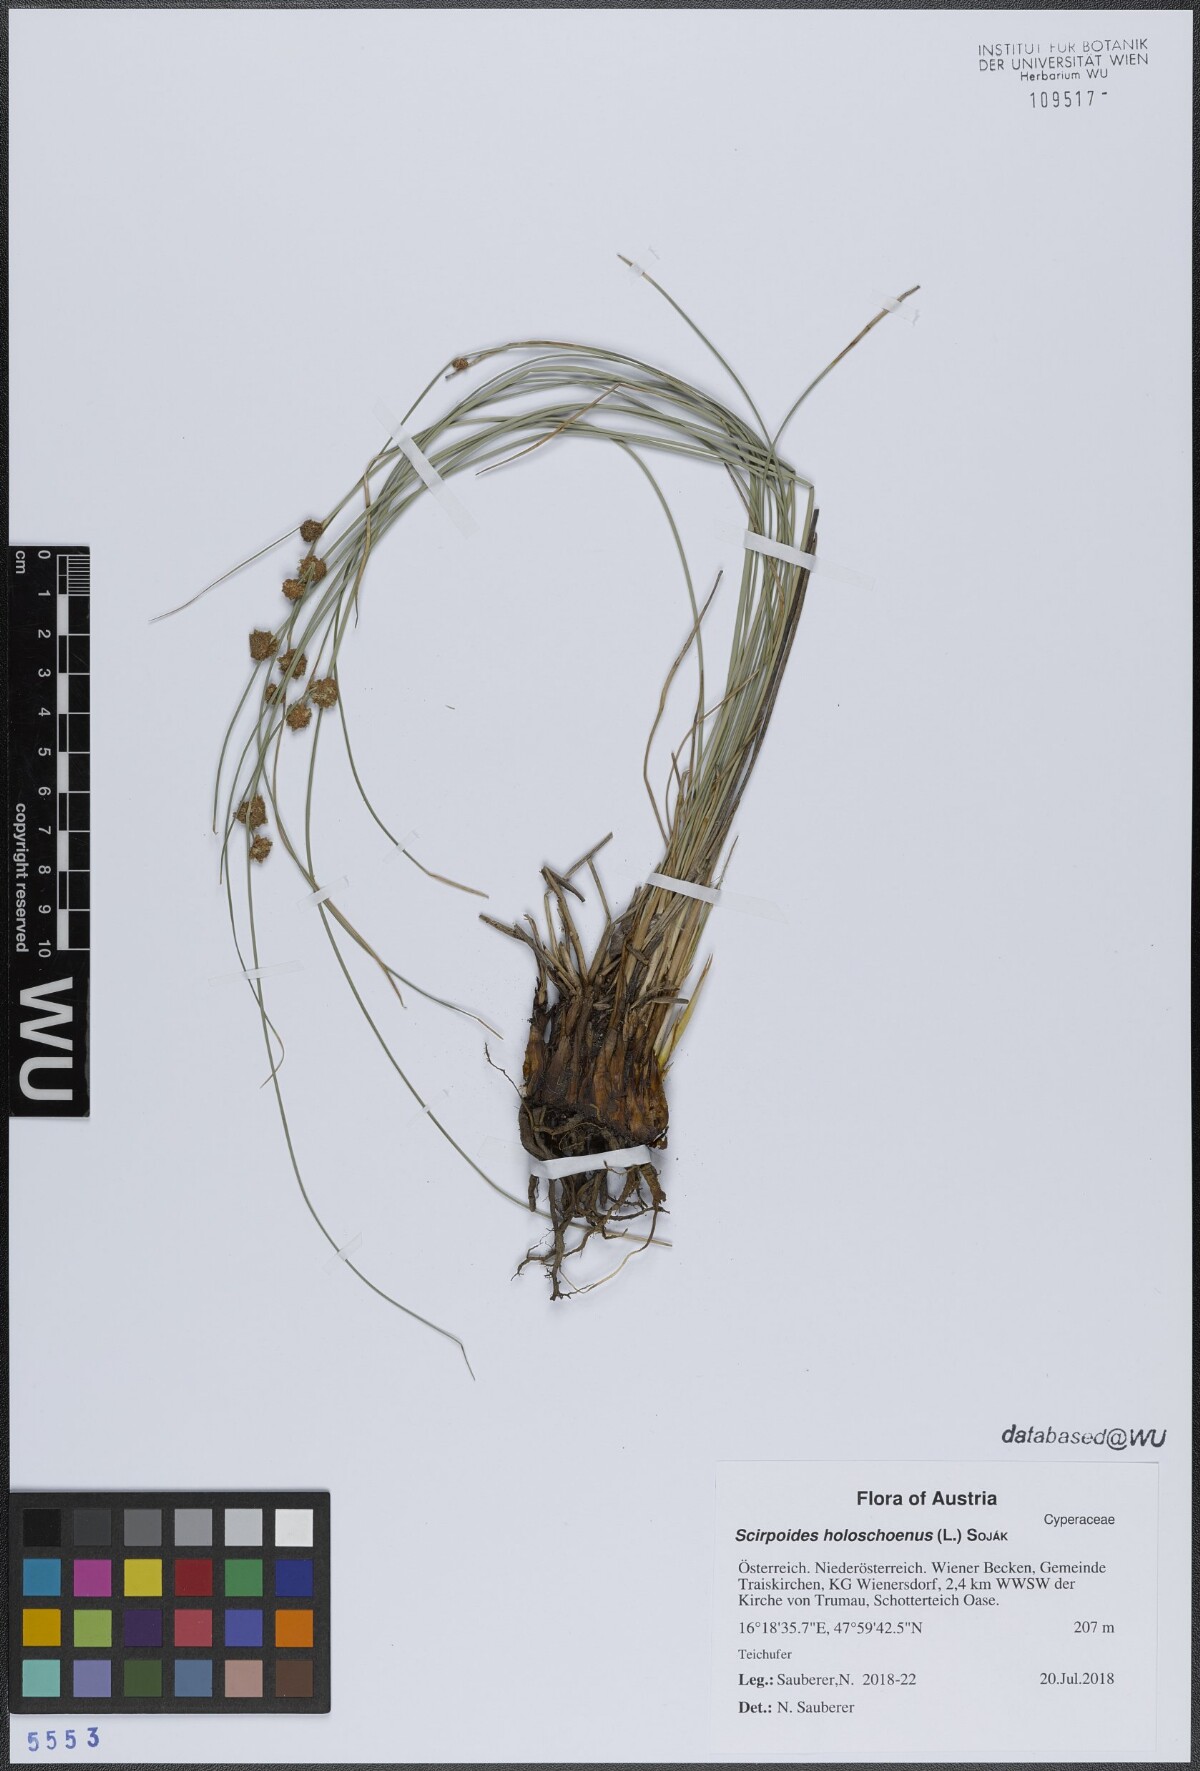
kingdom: Plantae
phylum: Tracheophyta
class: Liliopsida
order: Poales
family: Cyperaceae
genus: Scirpoides
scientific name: Scirpoides holoschoenus
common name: Round-headed club-rush
